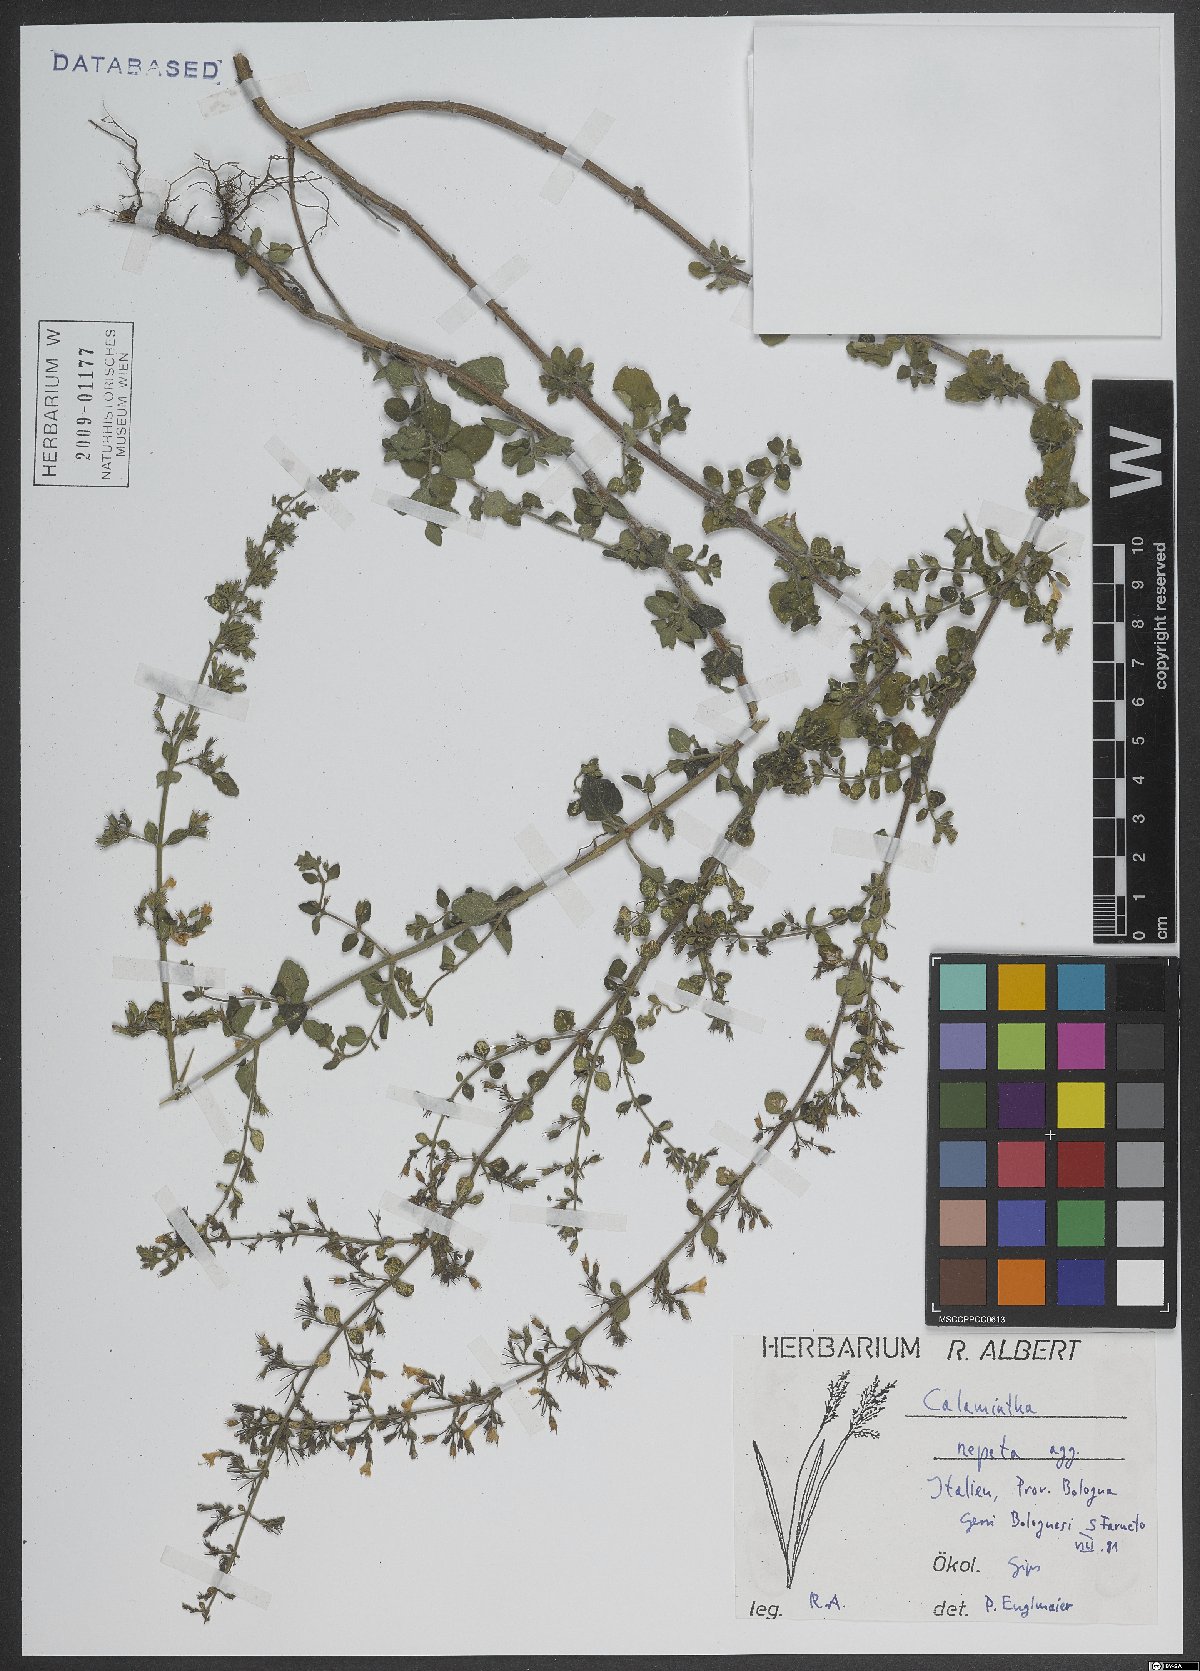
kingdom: Plantae
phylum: Tracheophyta
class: Magnoliopsida
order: Lamiales
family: Lamiaceae
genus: Clinopodium
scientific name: Clinopodium nepeta
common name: Lesser calamint
